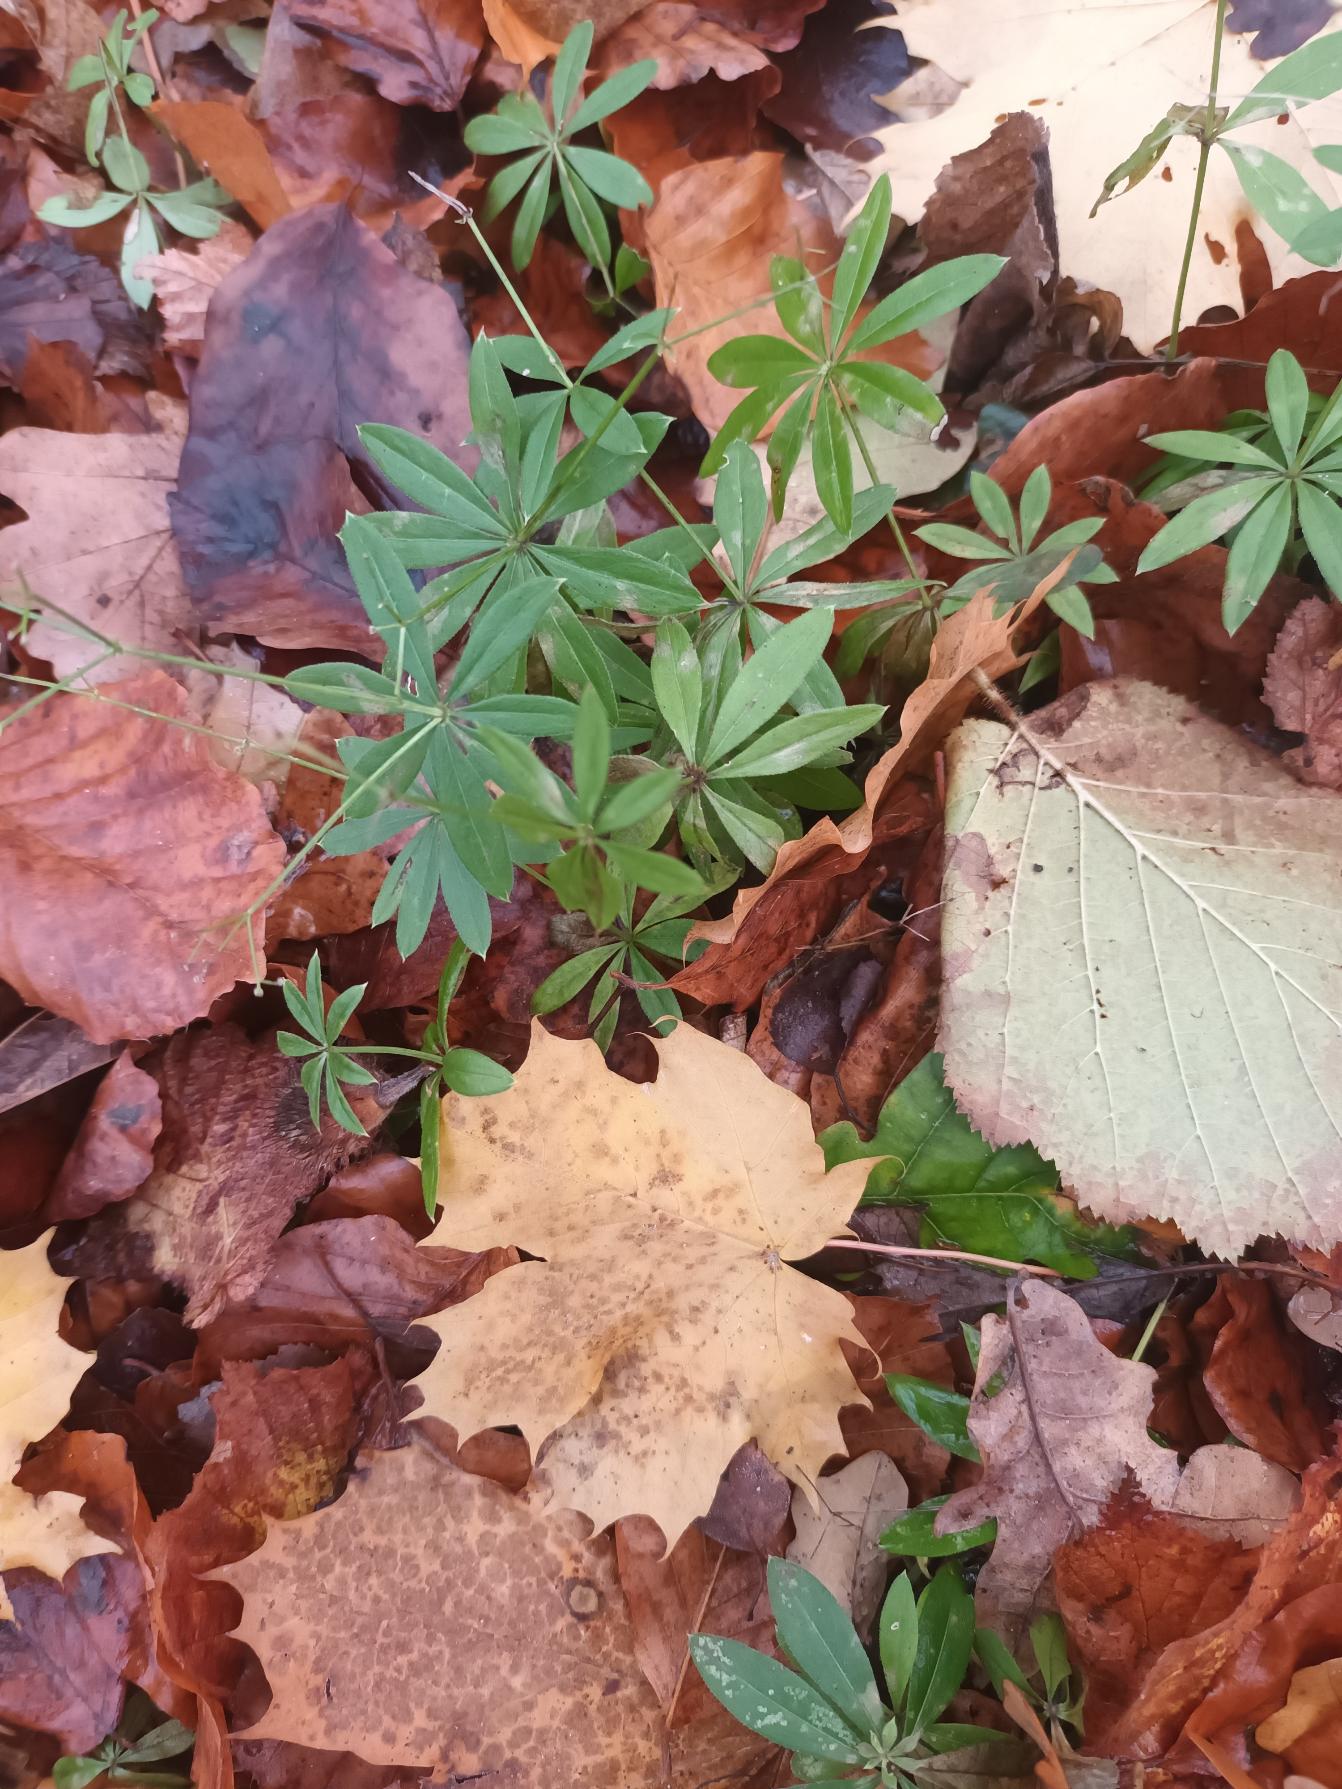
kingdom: Plantae
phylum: Tracheophyta
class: Magnoliopsida
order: Gentianales
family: Rubiaceae
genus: Galium
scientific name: Galium odoratum
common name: Skovmærke
